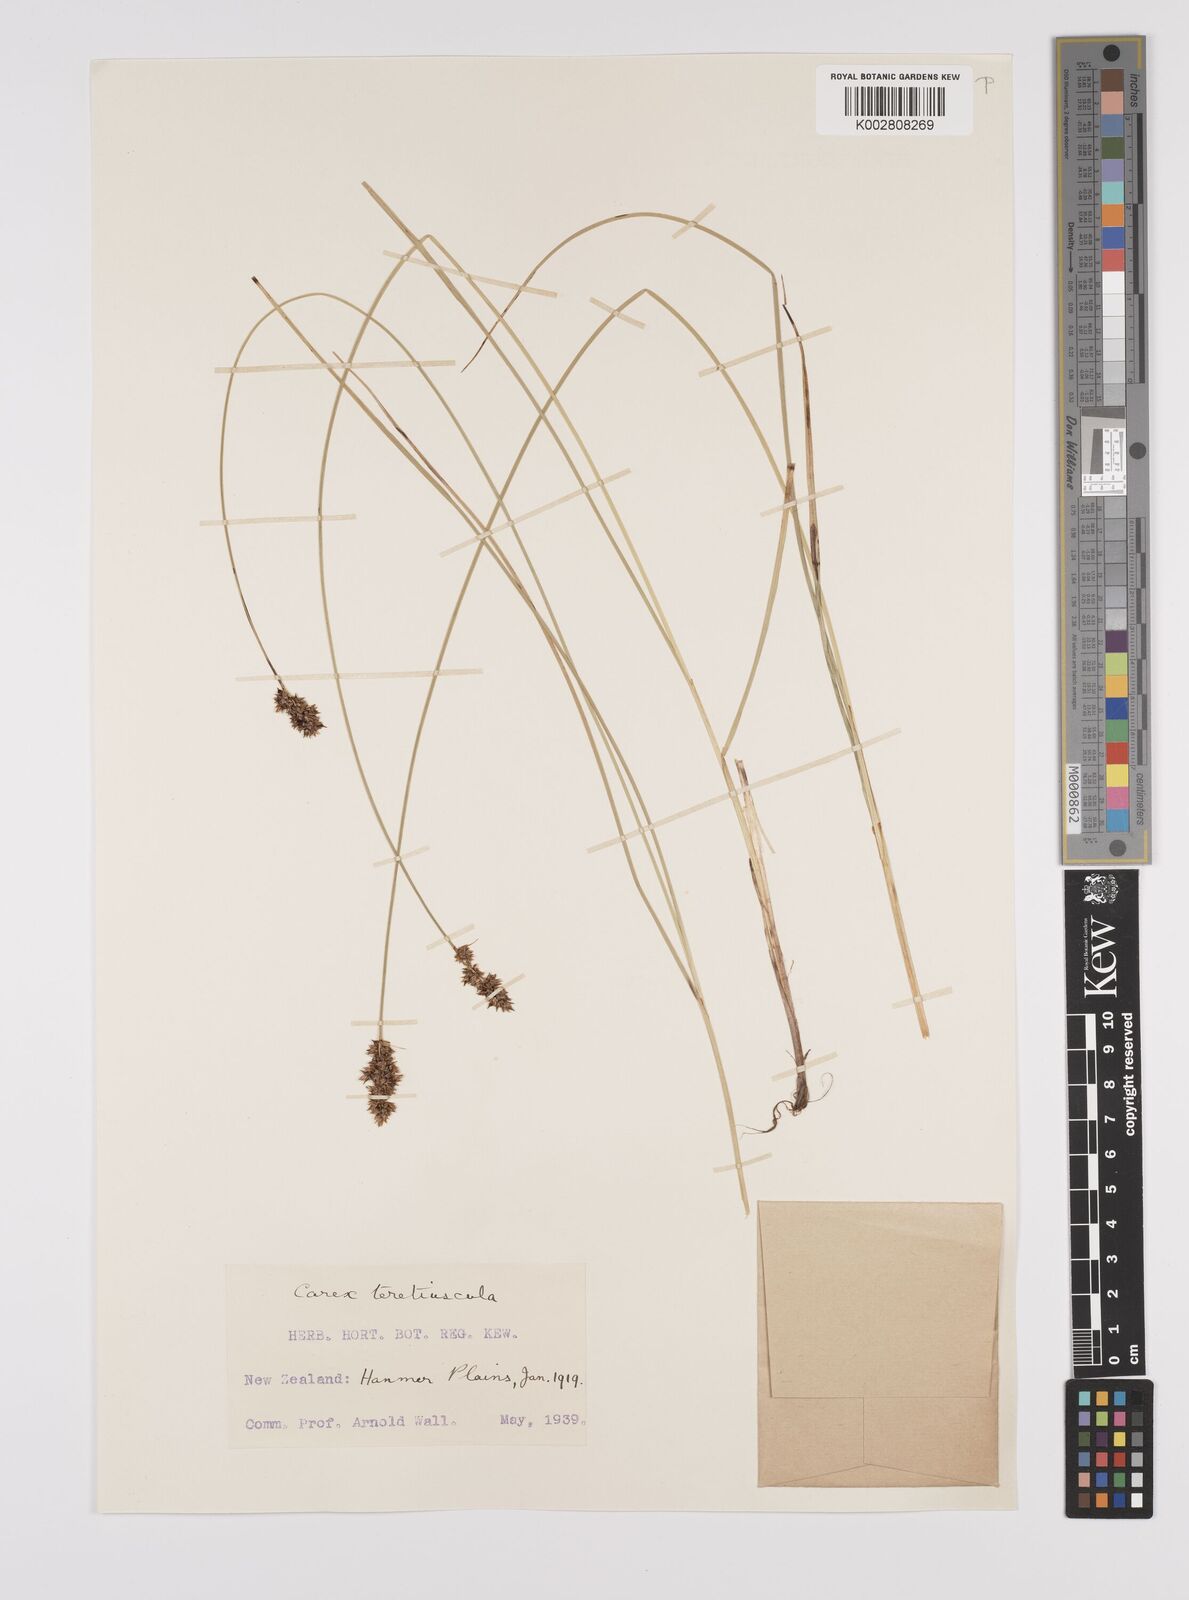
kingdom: Plantae
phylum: Tracheophyta
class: Liliopsida
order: Poales
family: Cyperaceae
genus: Carex
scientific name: Carex diandra
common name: Lesser tussock-sedge
